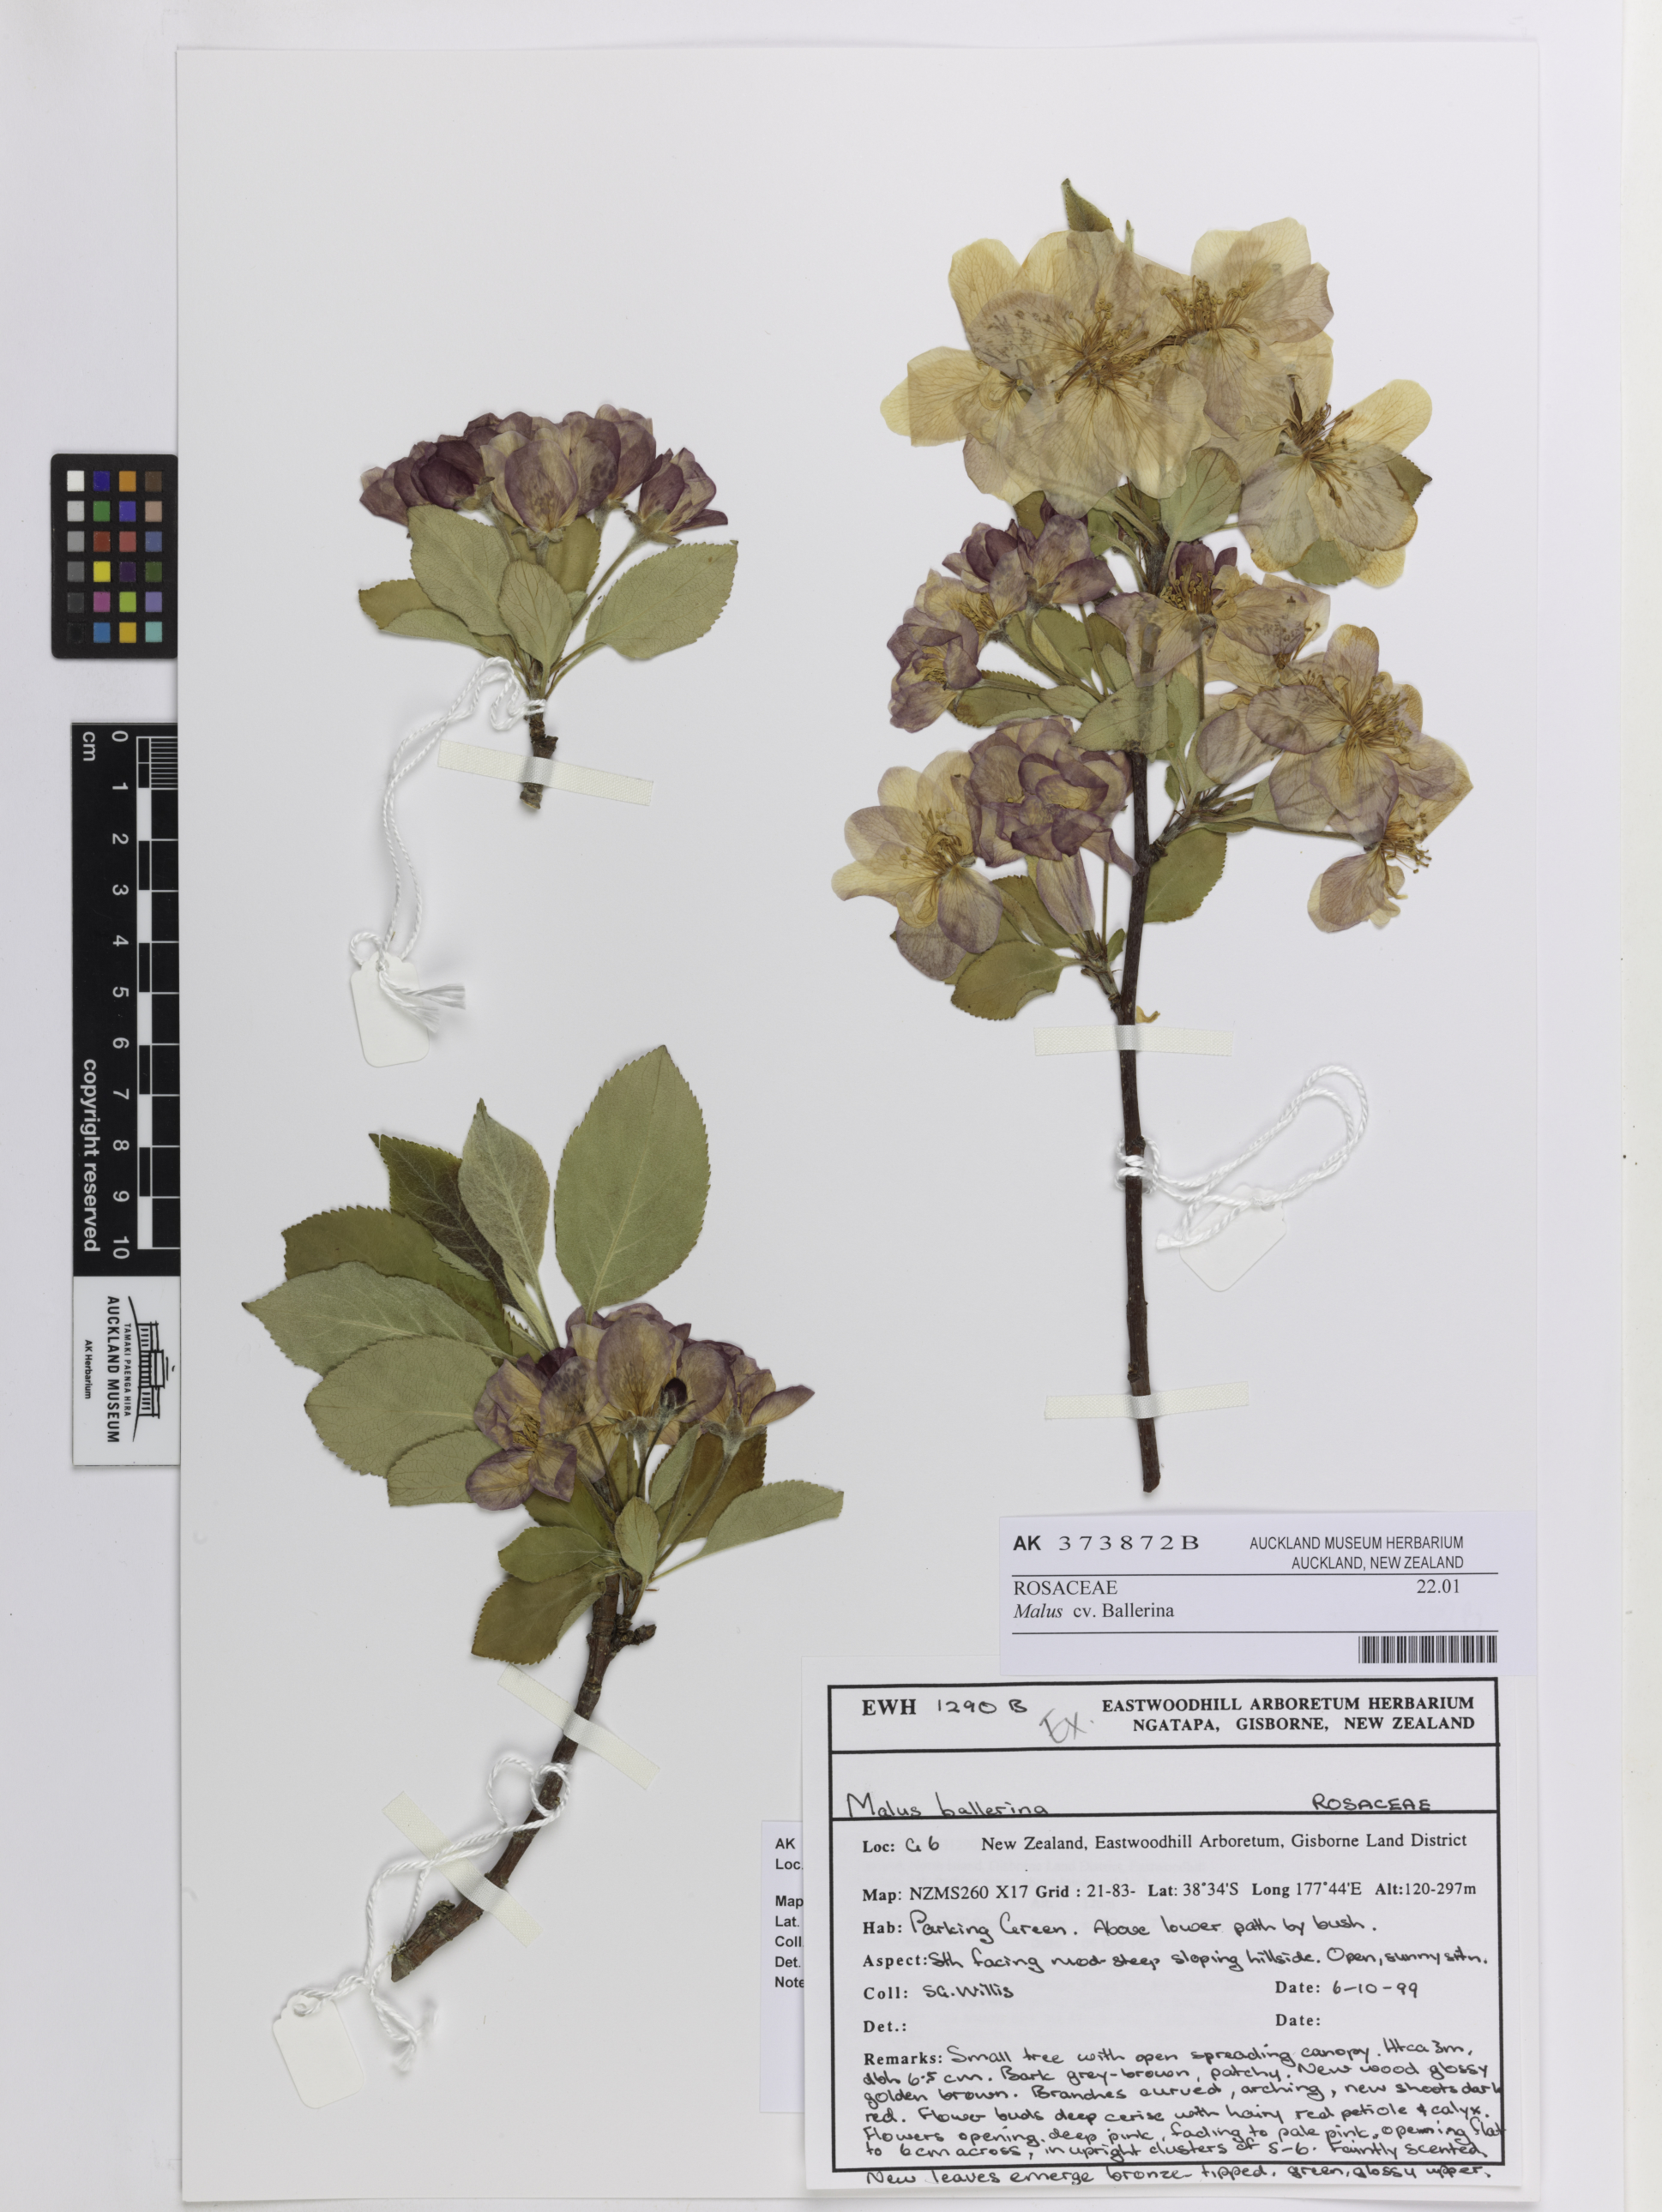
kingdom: Plantae
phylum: Tracheophyta
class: Magnoliopsida
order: Rosales
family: Rosaceae
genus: Malus
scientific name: Malus
